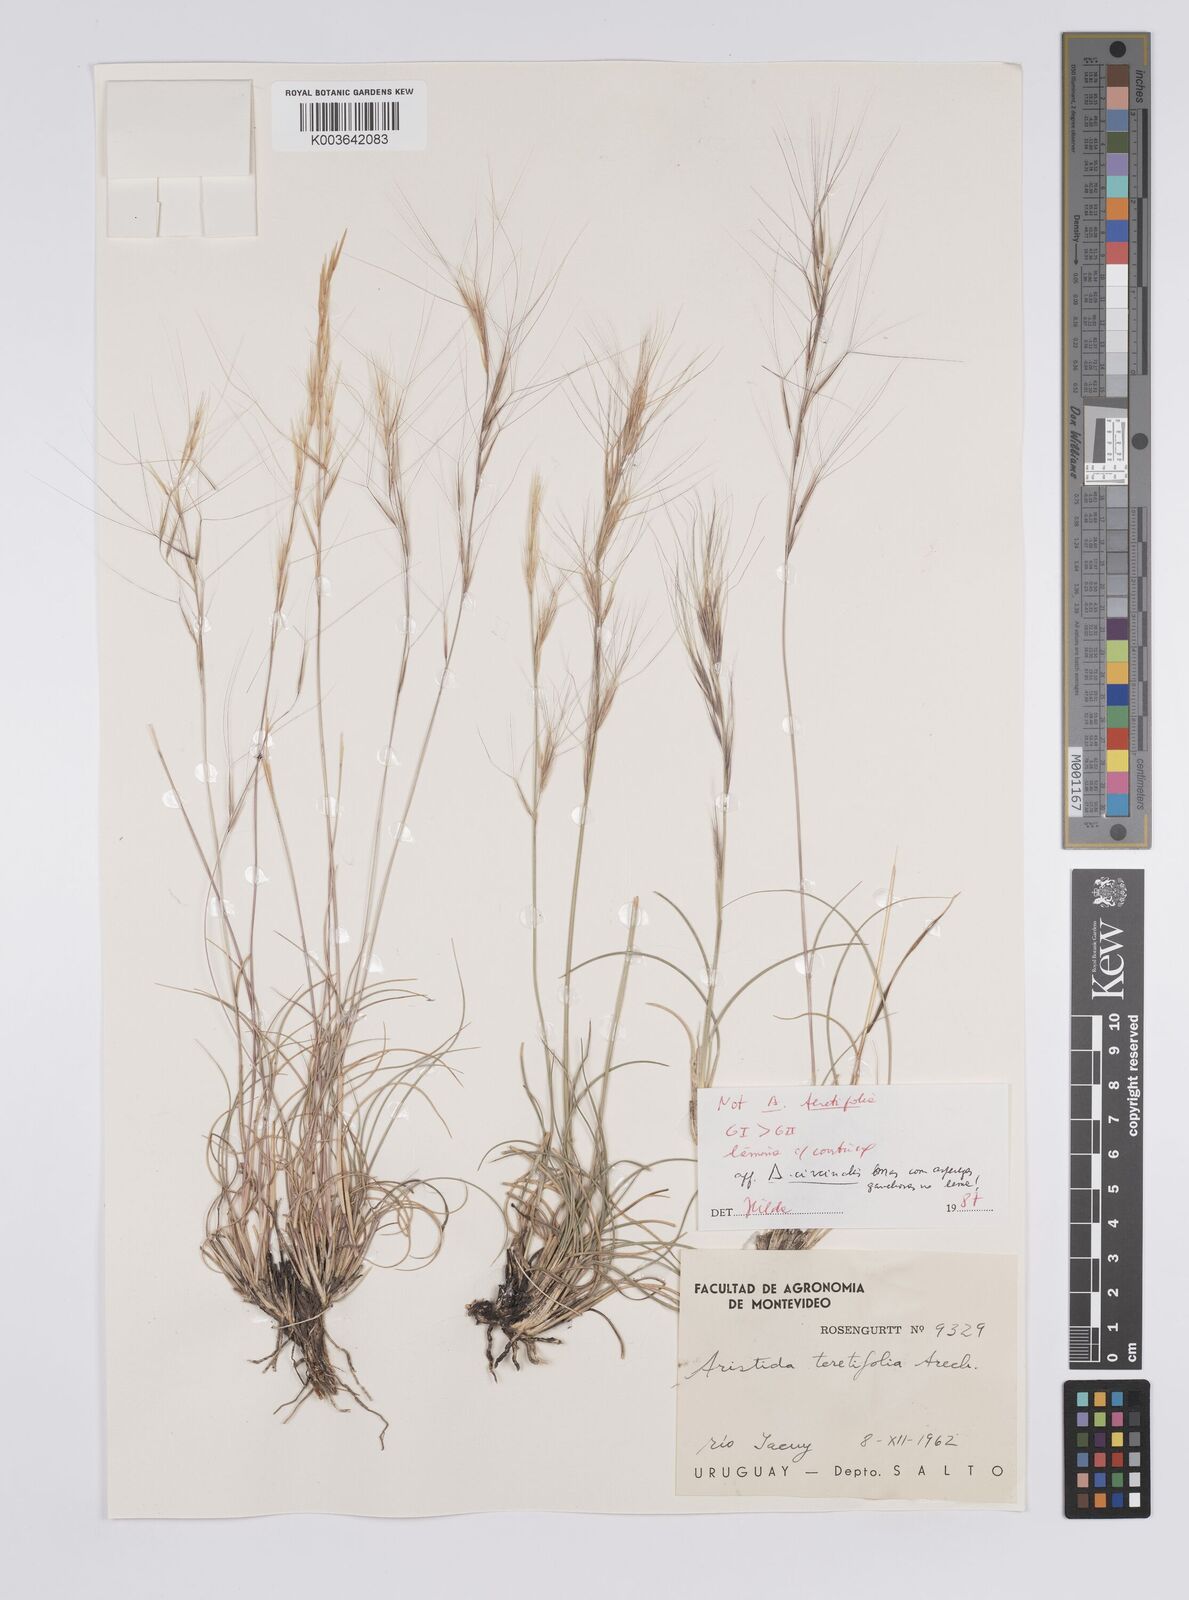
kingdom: Plantae
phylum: Tracheophyta
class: Liliopsida
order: Poales
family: Poaceae
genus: Aristida
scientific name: Aristida teretifolia
